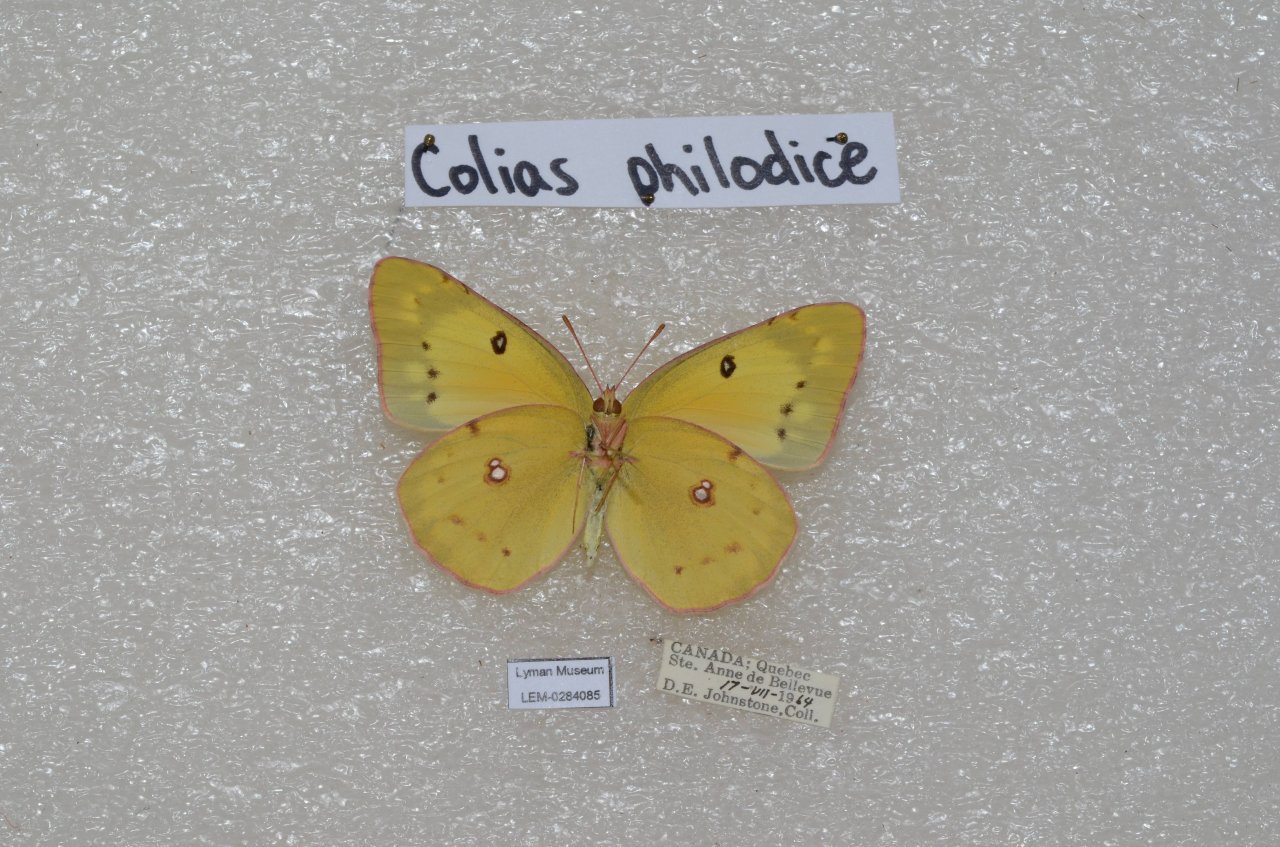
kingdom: Animalia
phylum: Arthropoda
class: Insecta
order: Lepidoptera
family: Pieridae
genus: Colias
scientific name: Colias philodice
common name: Clouded Sulphur
